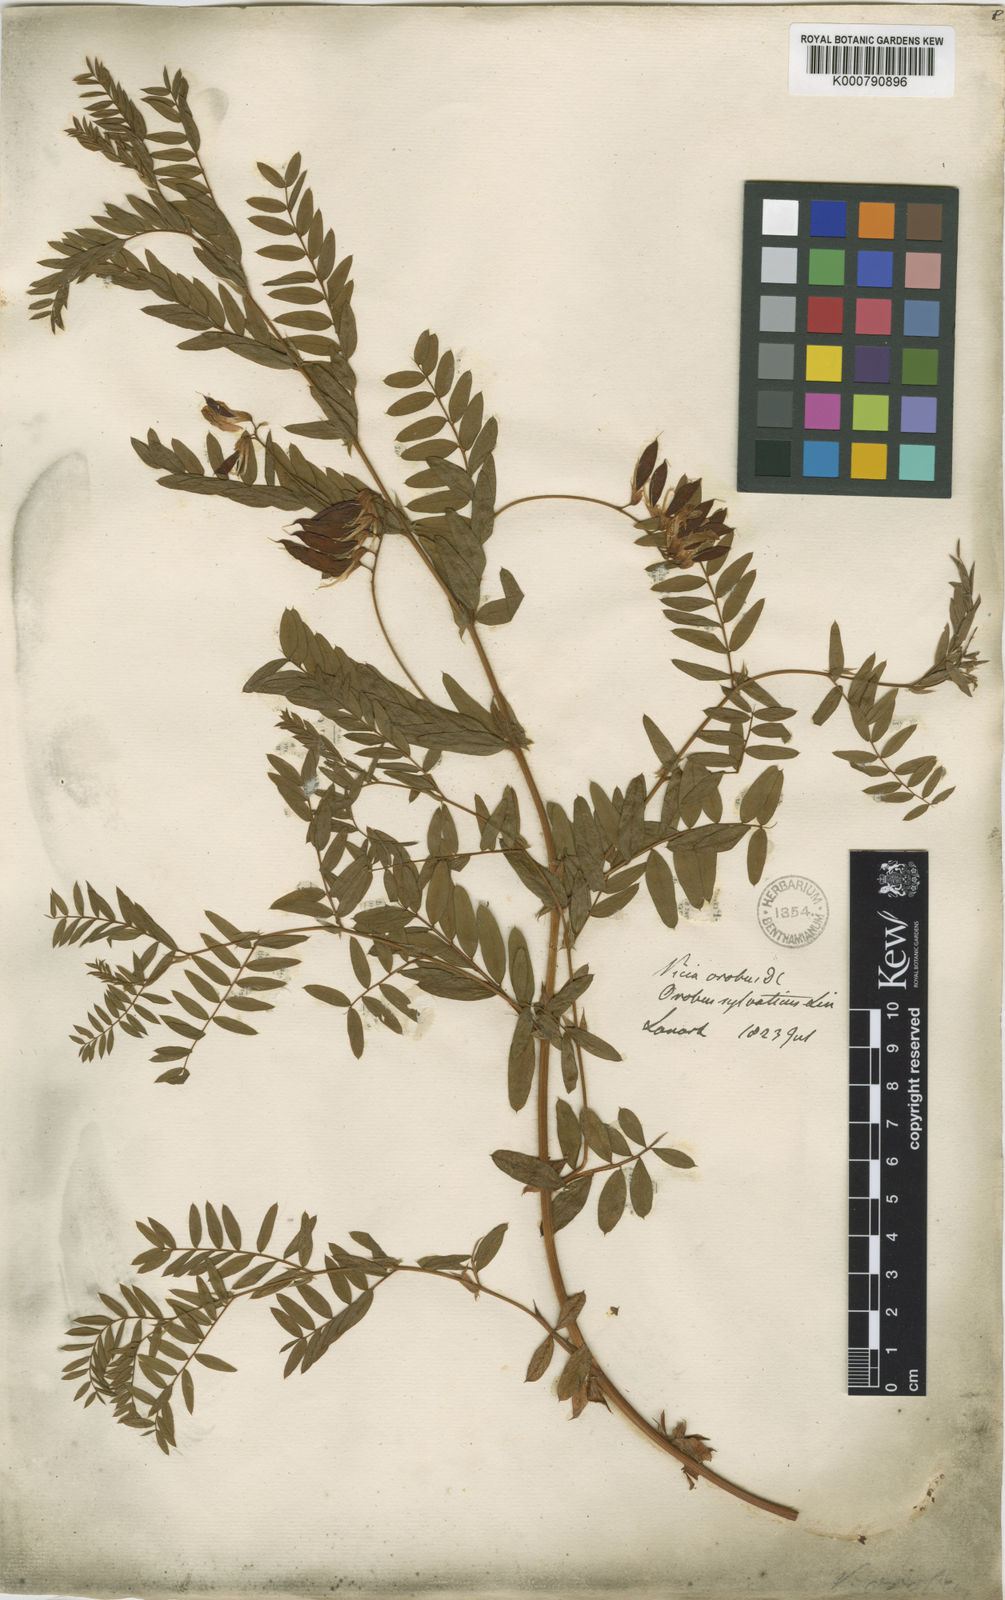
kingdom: Plantae
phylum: Tracheophyta
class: Magnoliopsida
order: Fabales
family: Fabaceae
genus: Vicia
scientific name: Vicia orobus
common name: Wood bitter-vetch
